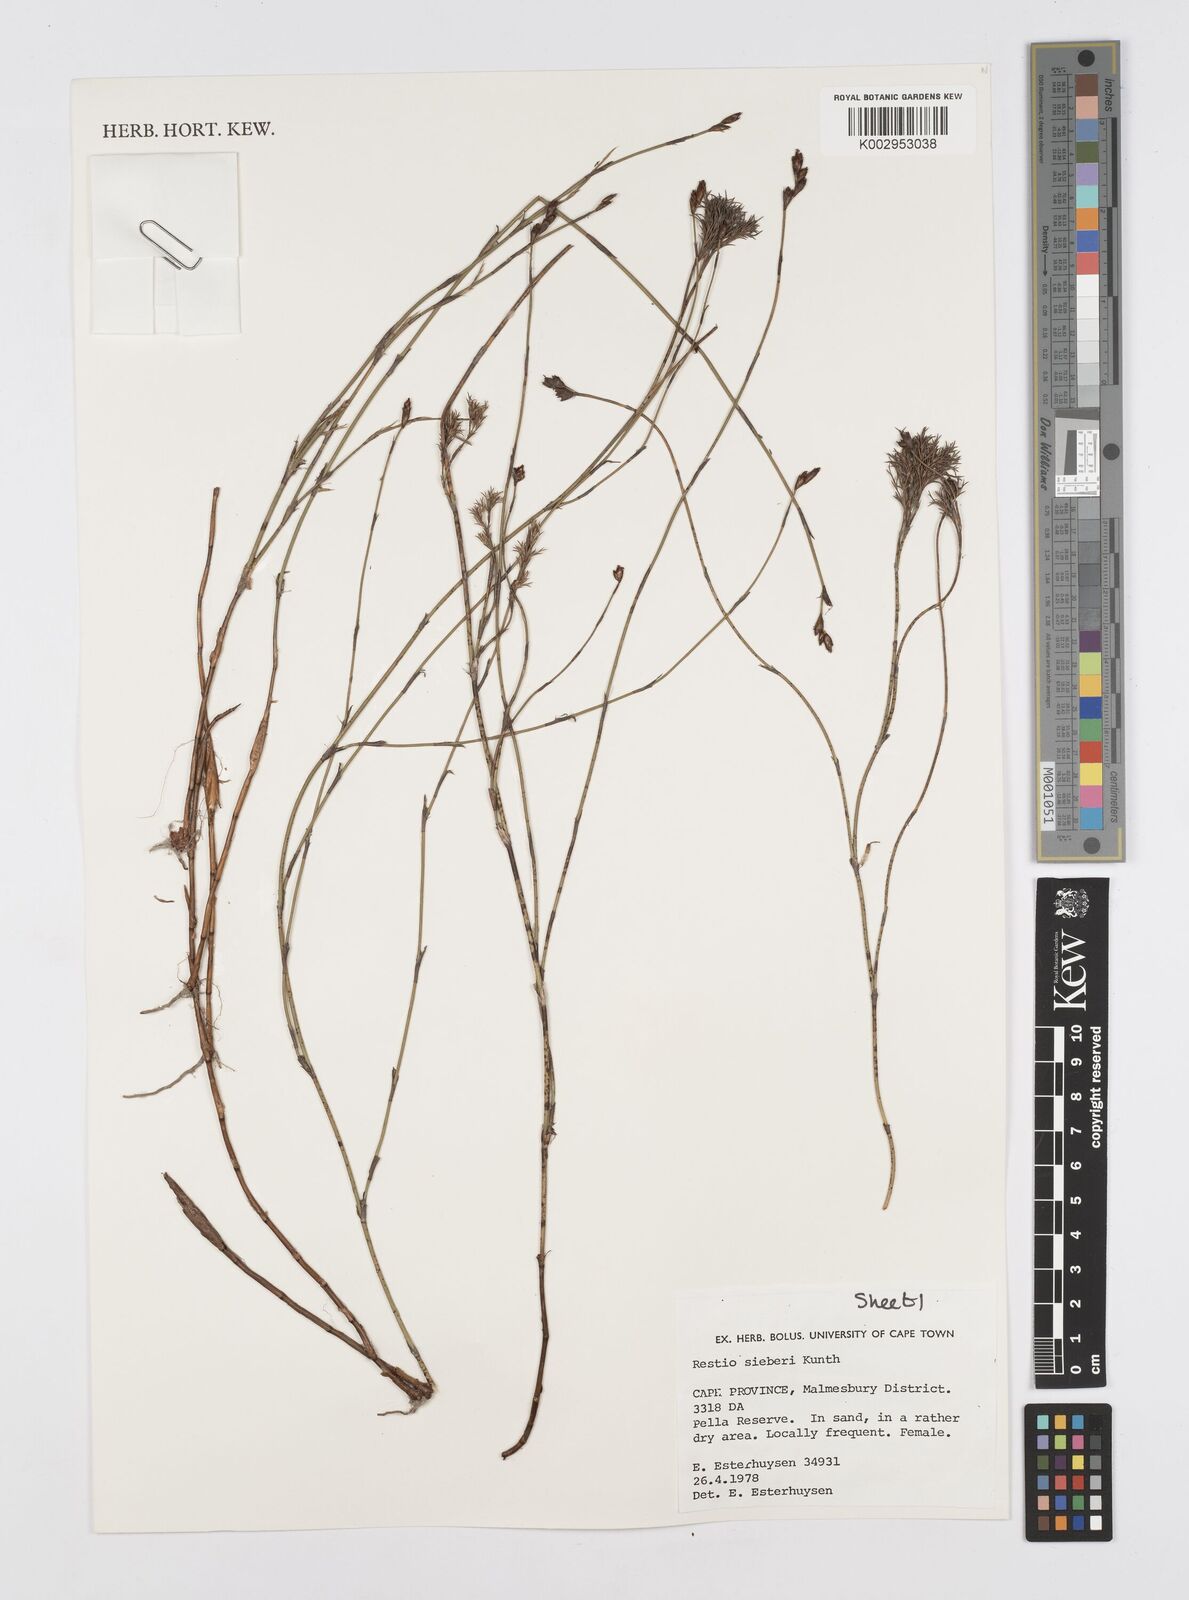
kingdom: Plantae
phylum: Tracheophyta
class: Liliopsida
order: Poales
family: Restionaceae
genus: Restio
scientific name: Restio sieberi
